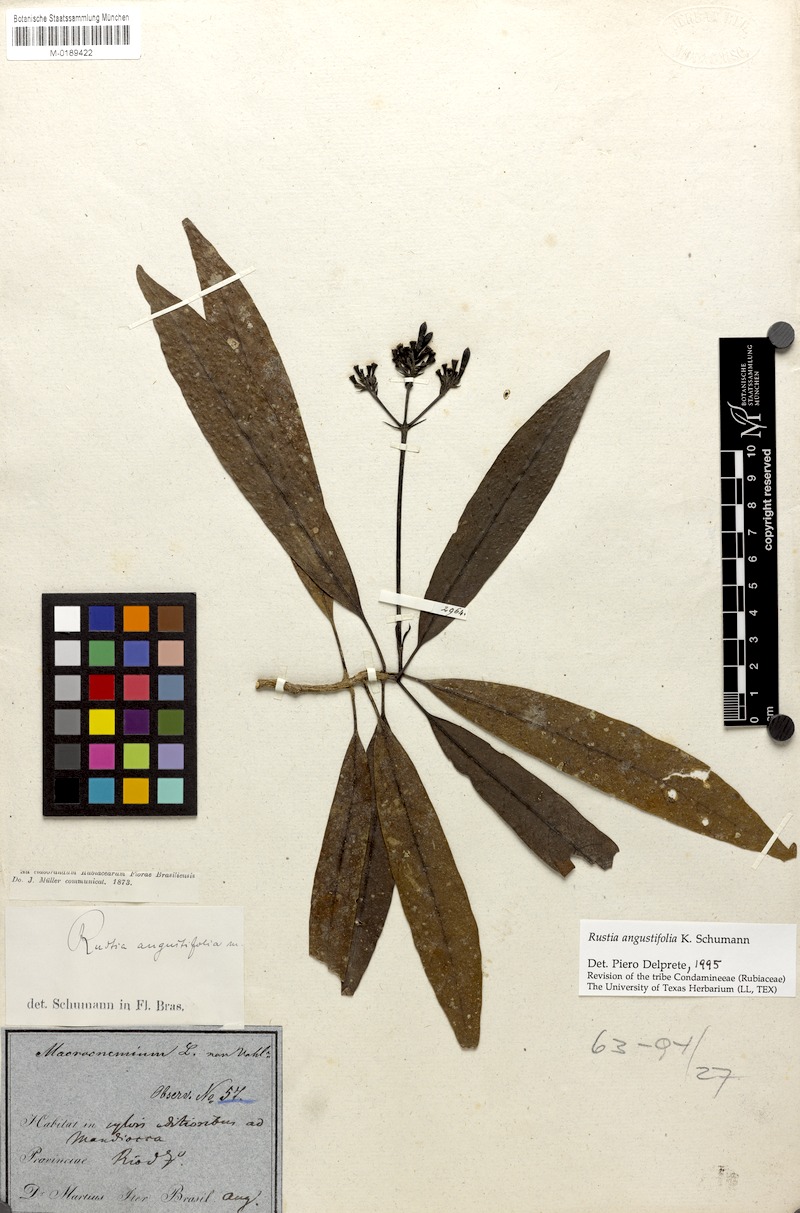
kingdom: Plantae
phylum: Tracheophyta
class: Magnoliopsida
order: Gentianales
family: Rubiaceae
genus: Rustia
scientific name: Rustia angustifolia
